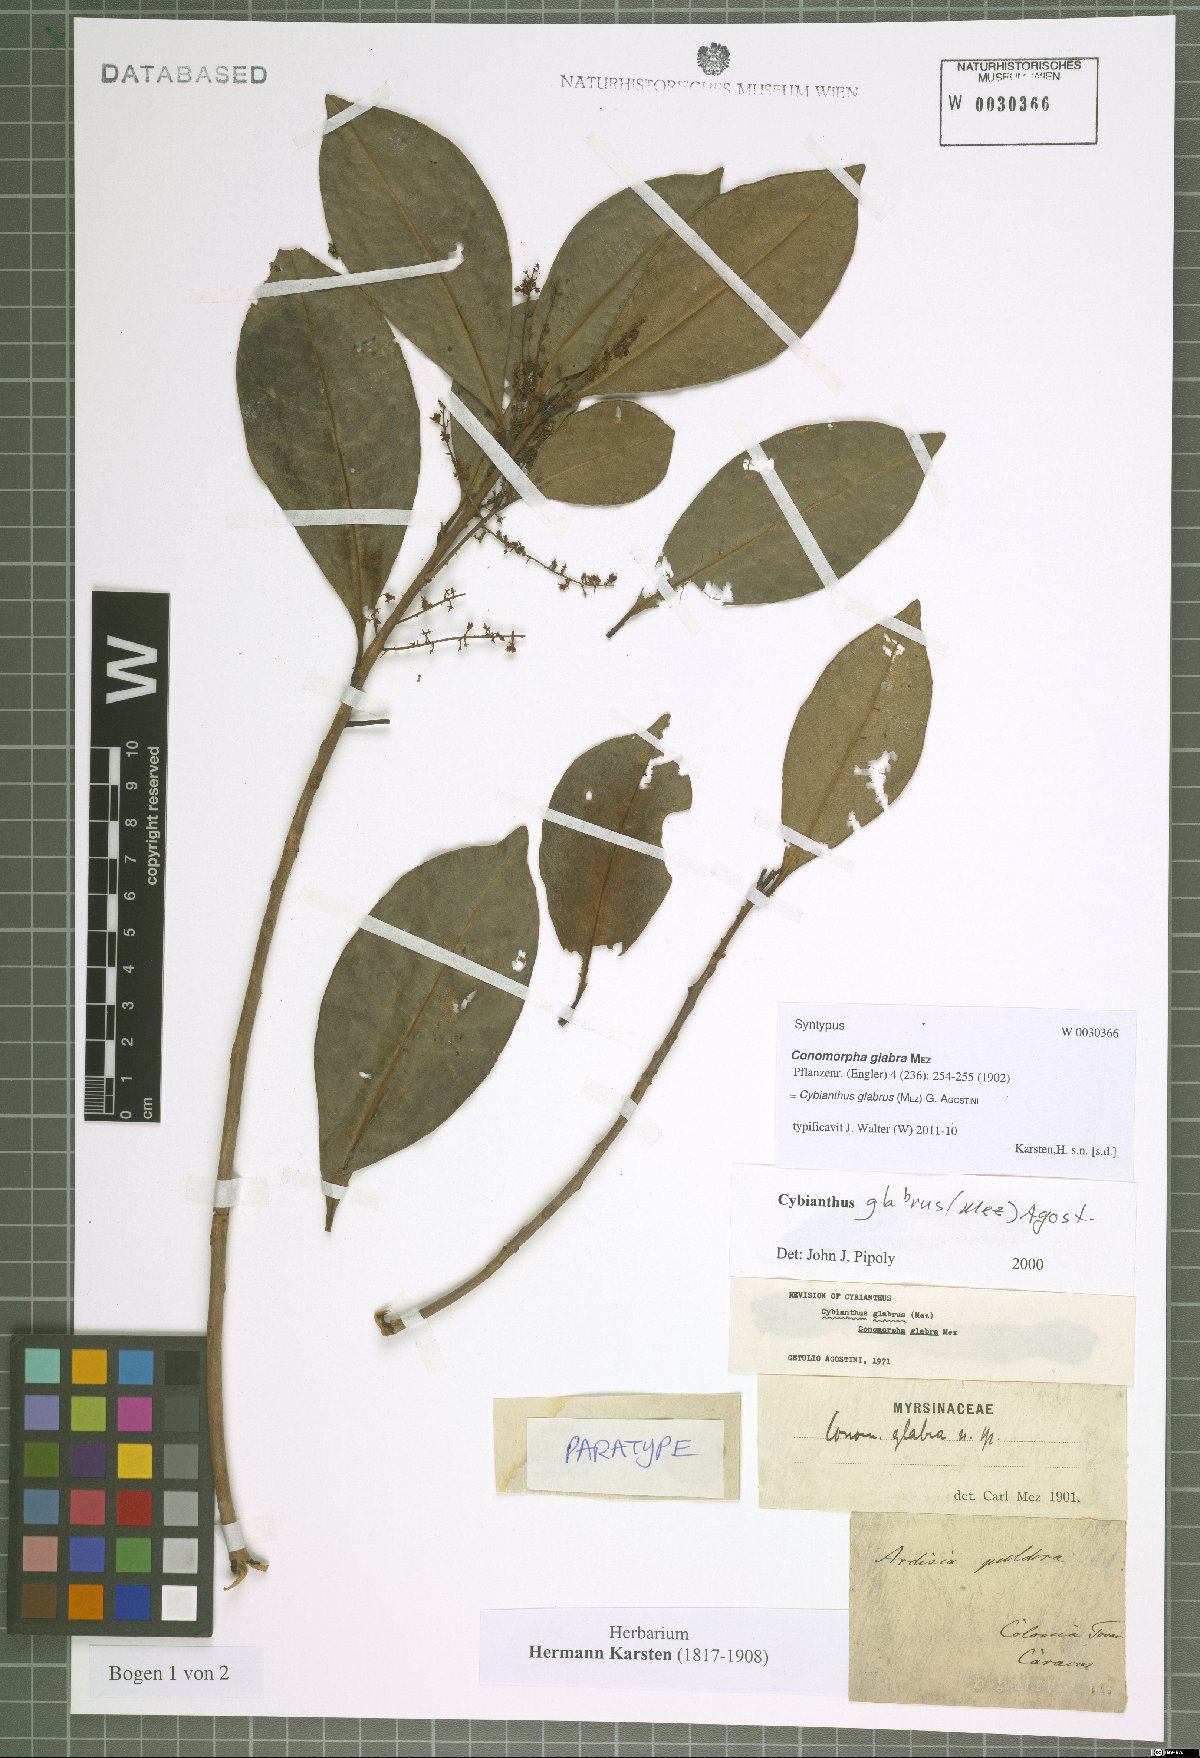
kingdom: Plantae
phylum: Tracheophyta
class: Magnoliopsida
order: Ericales
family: Primulaceae
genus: Cybianthus
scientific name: Cybianthus glabrus
